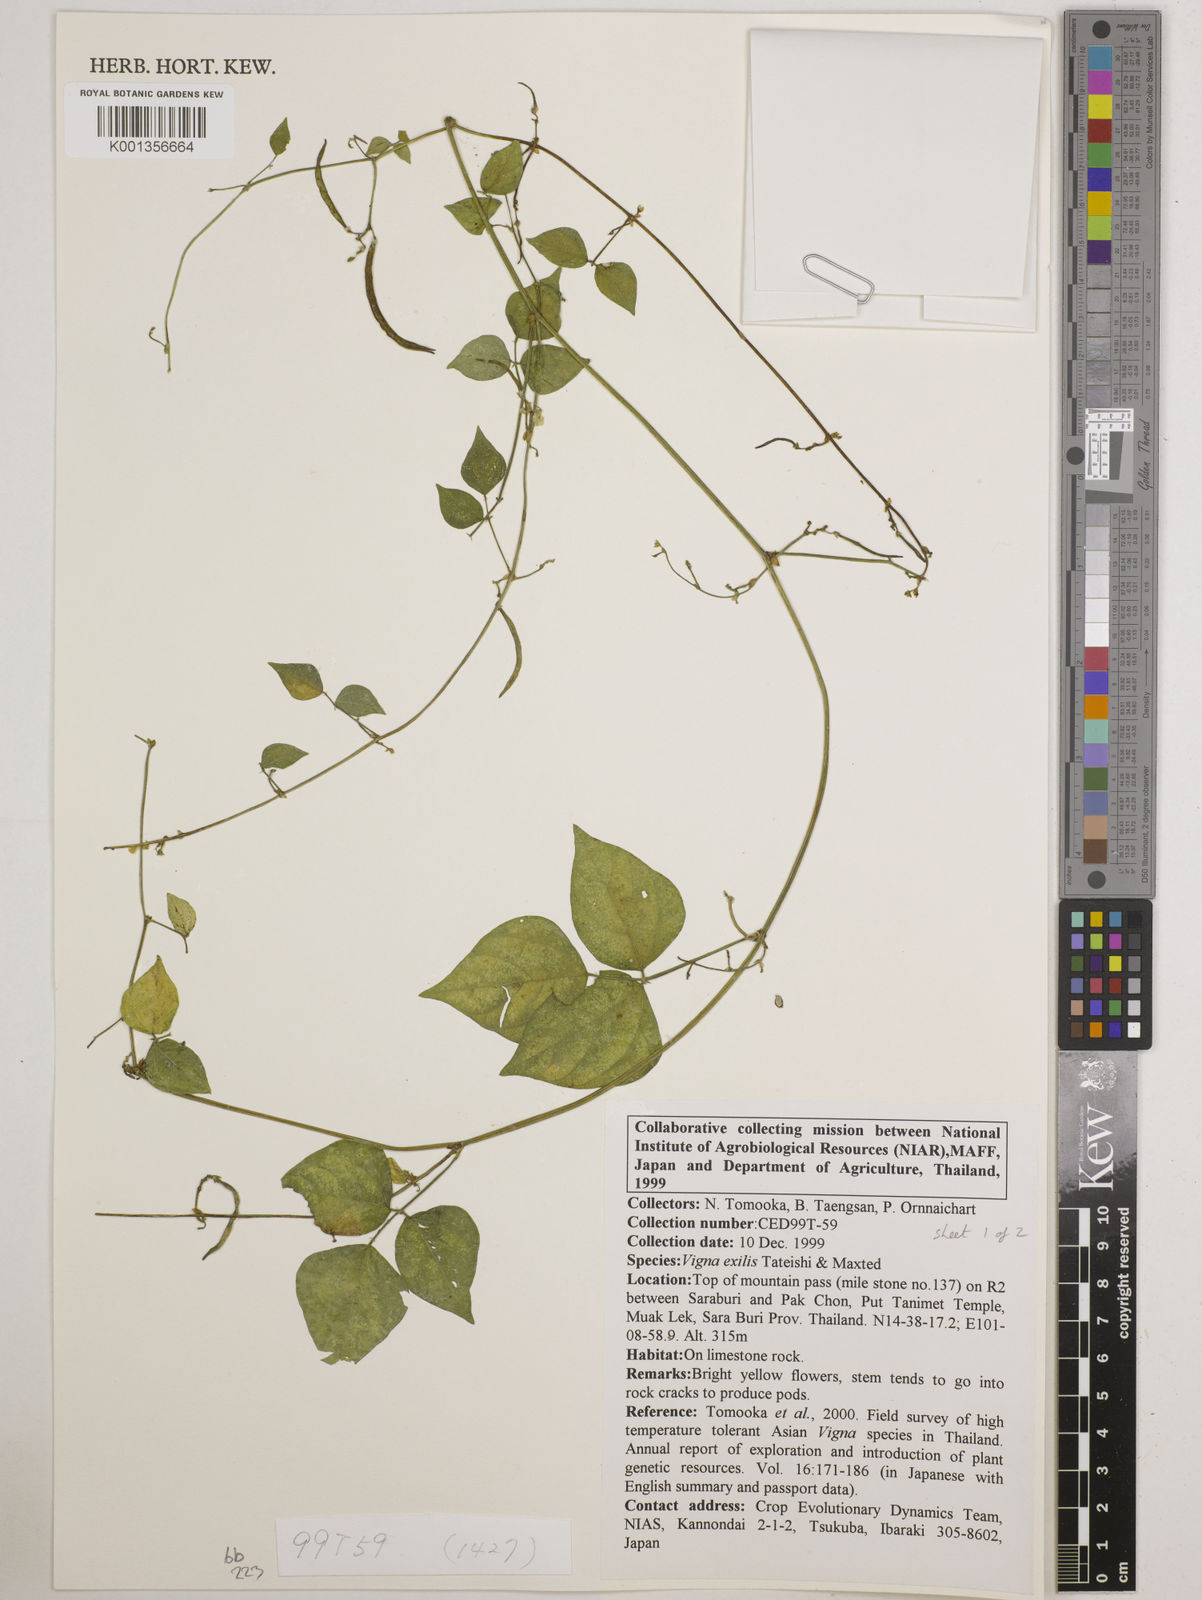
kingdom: Plantae
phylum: Tracheophyta
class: Magnoliopsida
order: Fabales
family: Fabaceae
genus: Vigna
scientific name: Vigna
